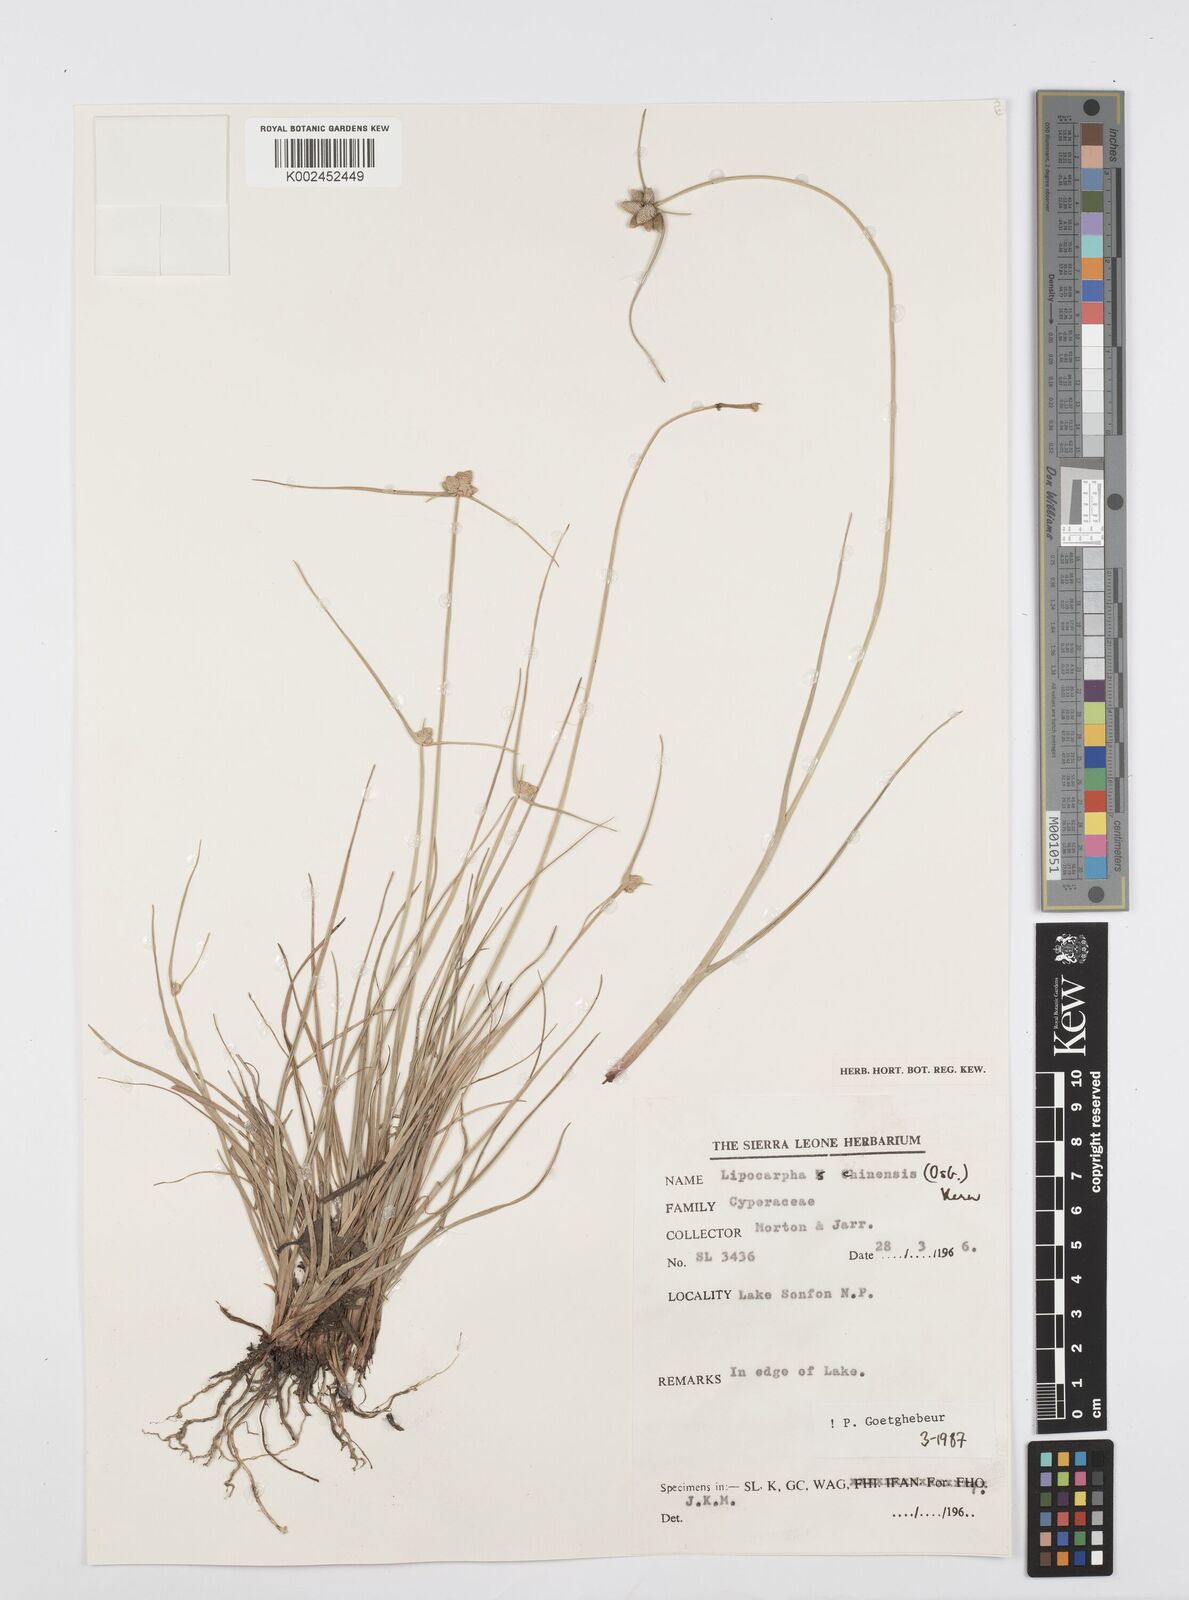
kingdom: Plantae
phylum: Tracheophyta
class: Liliopsida
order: Poales
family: Cyperaceae
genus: Cyperus
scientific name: Cyperus albescens
